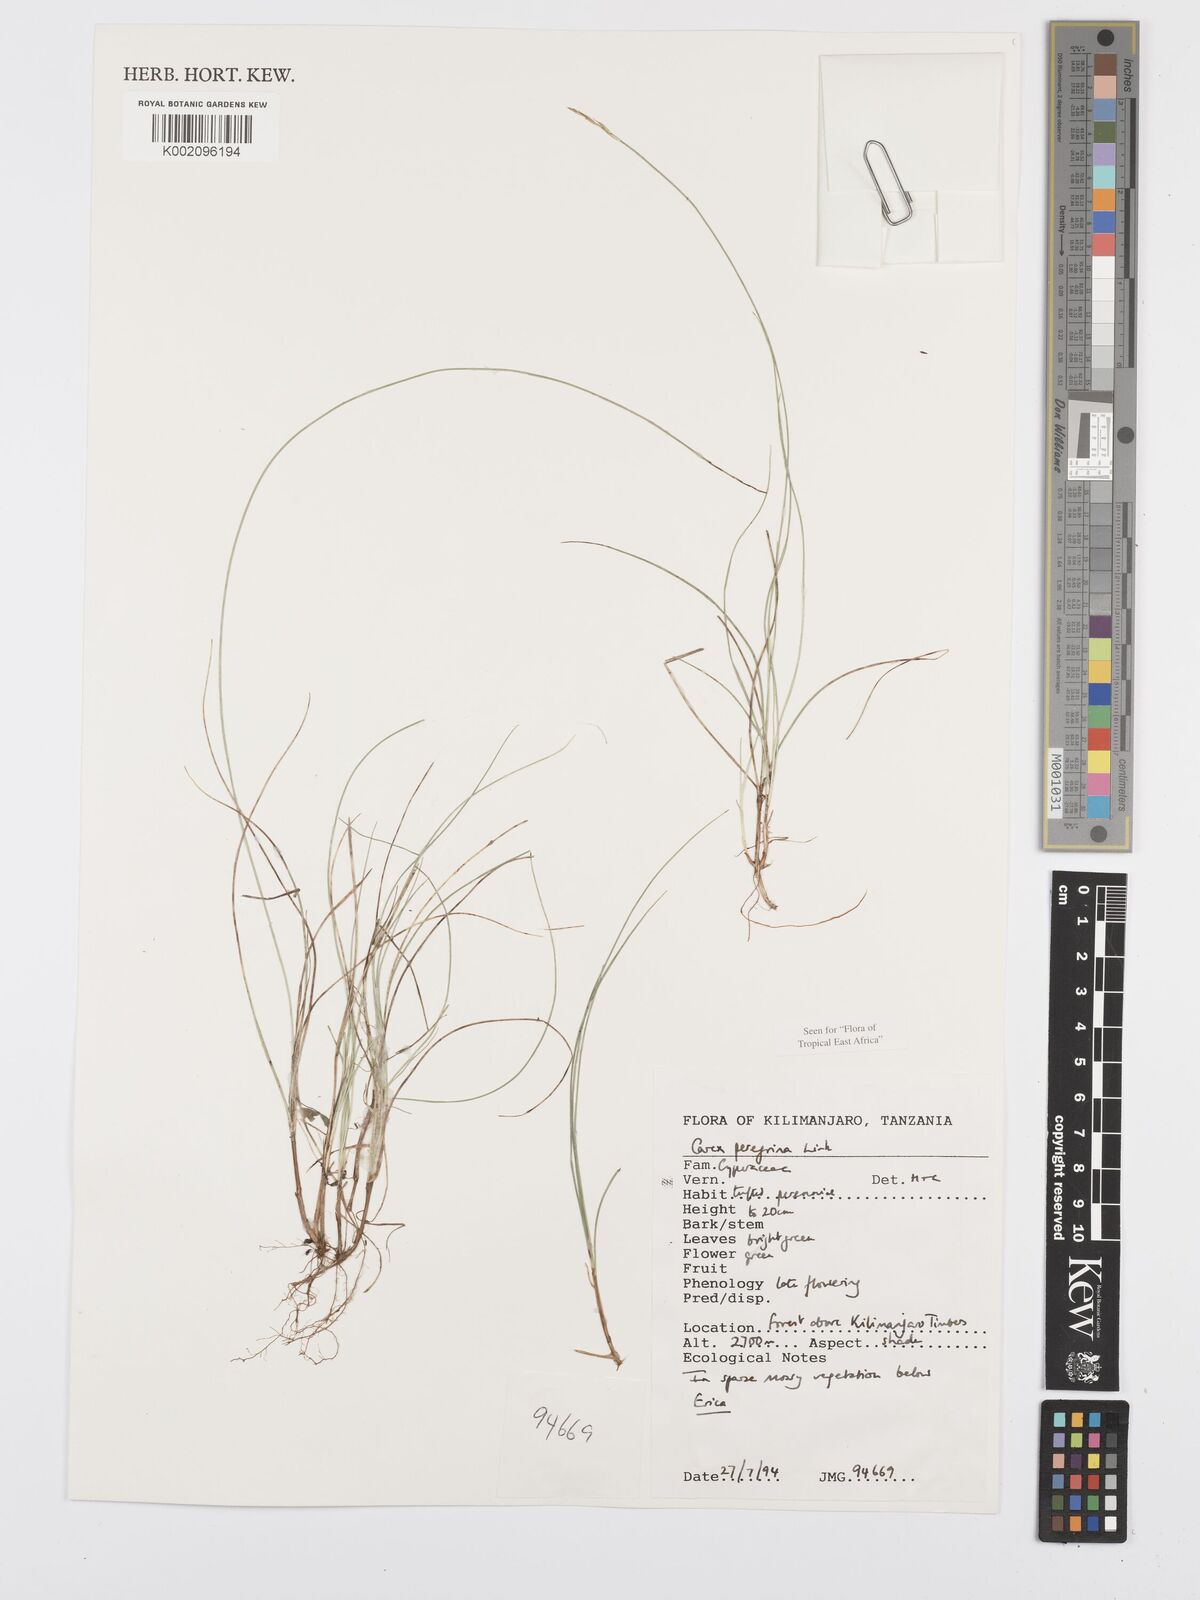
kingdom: Plantae
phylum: Tracheophyta
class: Liliopsida
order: Poales
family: Cyperaceae
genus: Carex
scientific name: Carex peregrina
